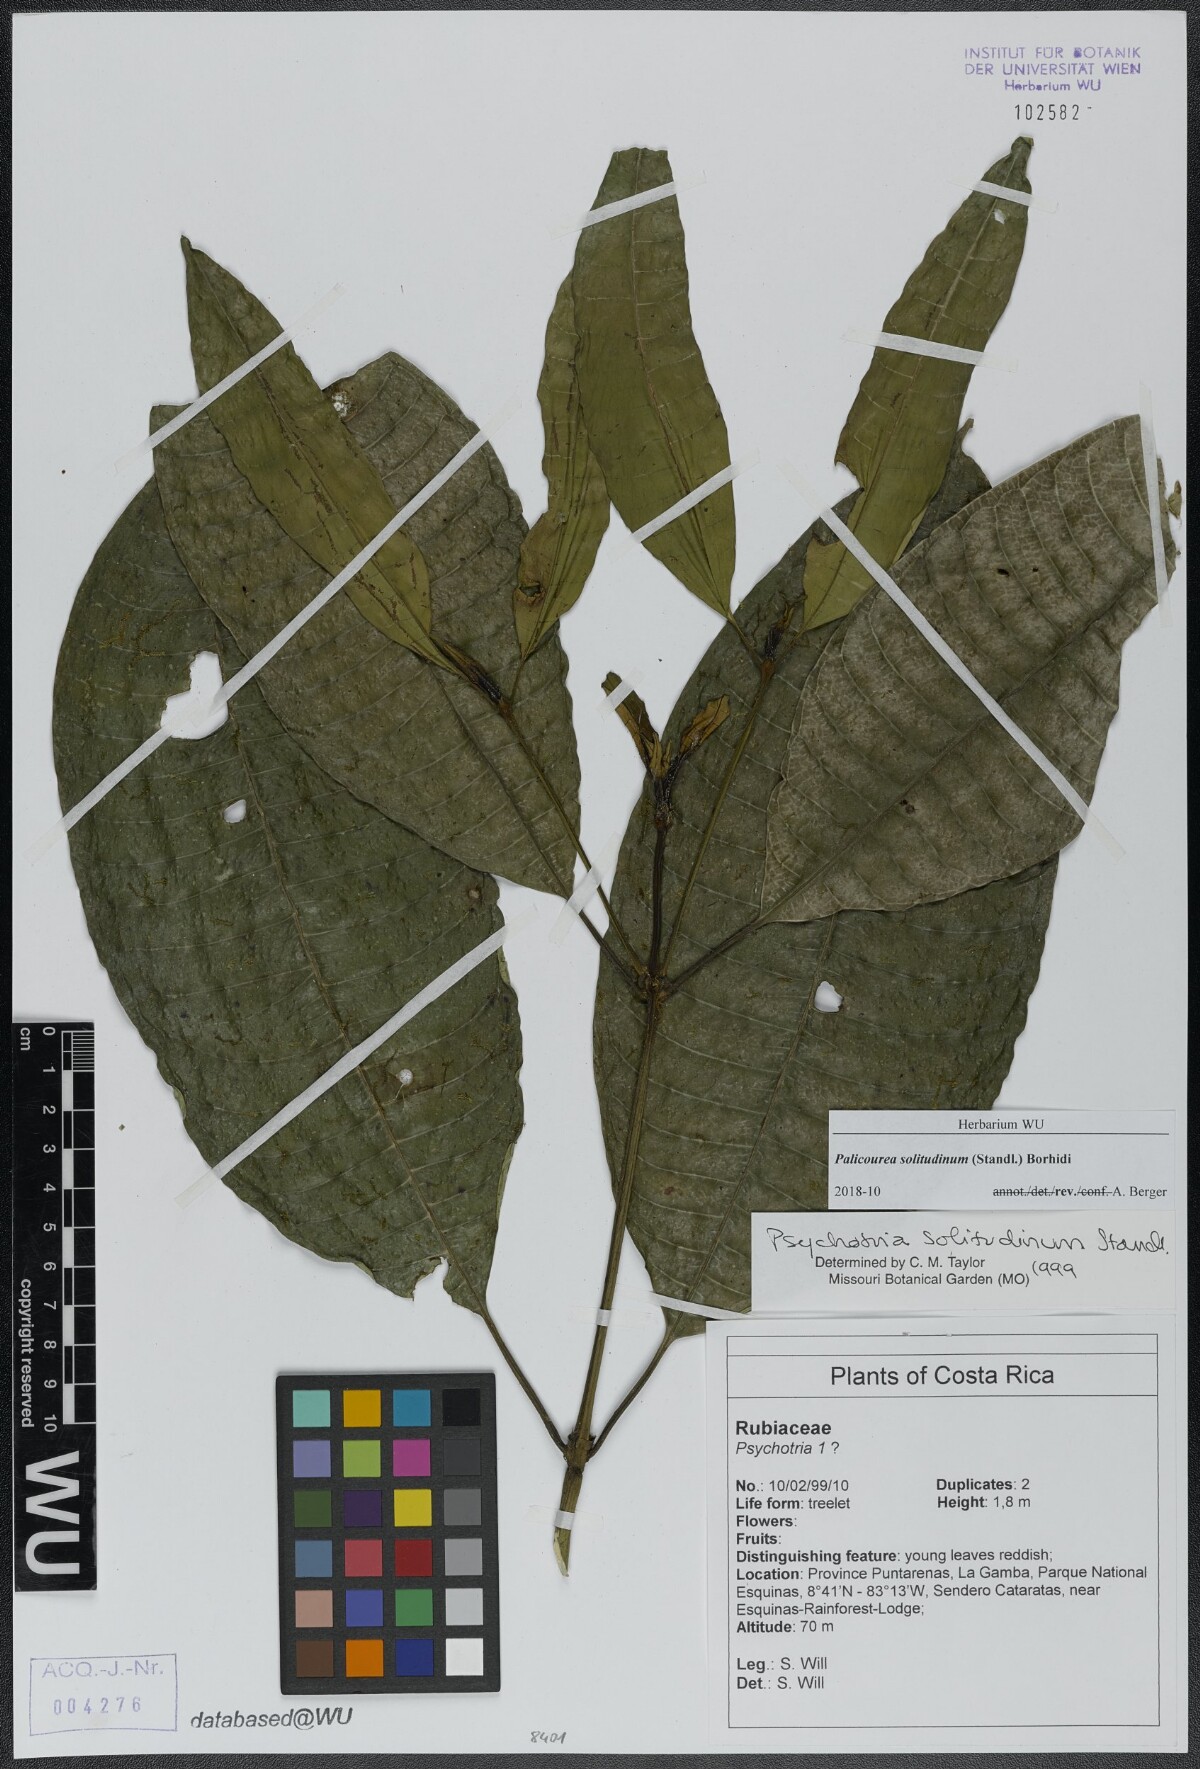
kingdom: Plantae
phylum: Tracheophyta
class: Magnoliopsida
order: Gentianales
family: Rubiaceae
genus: Palicourea
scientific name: Palicourea solitudinum
